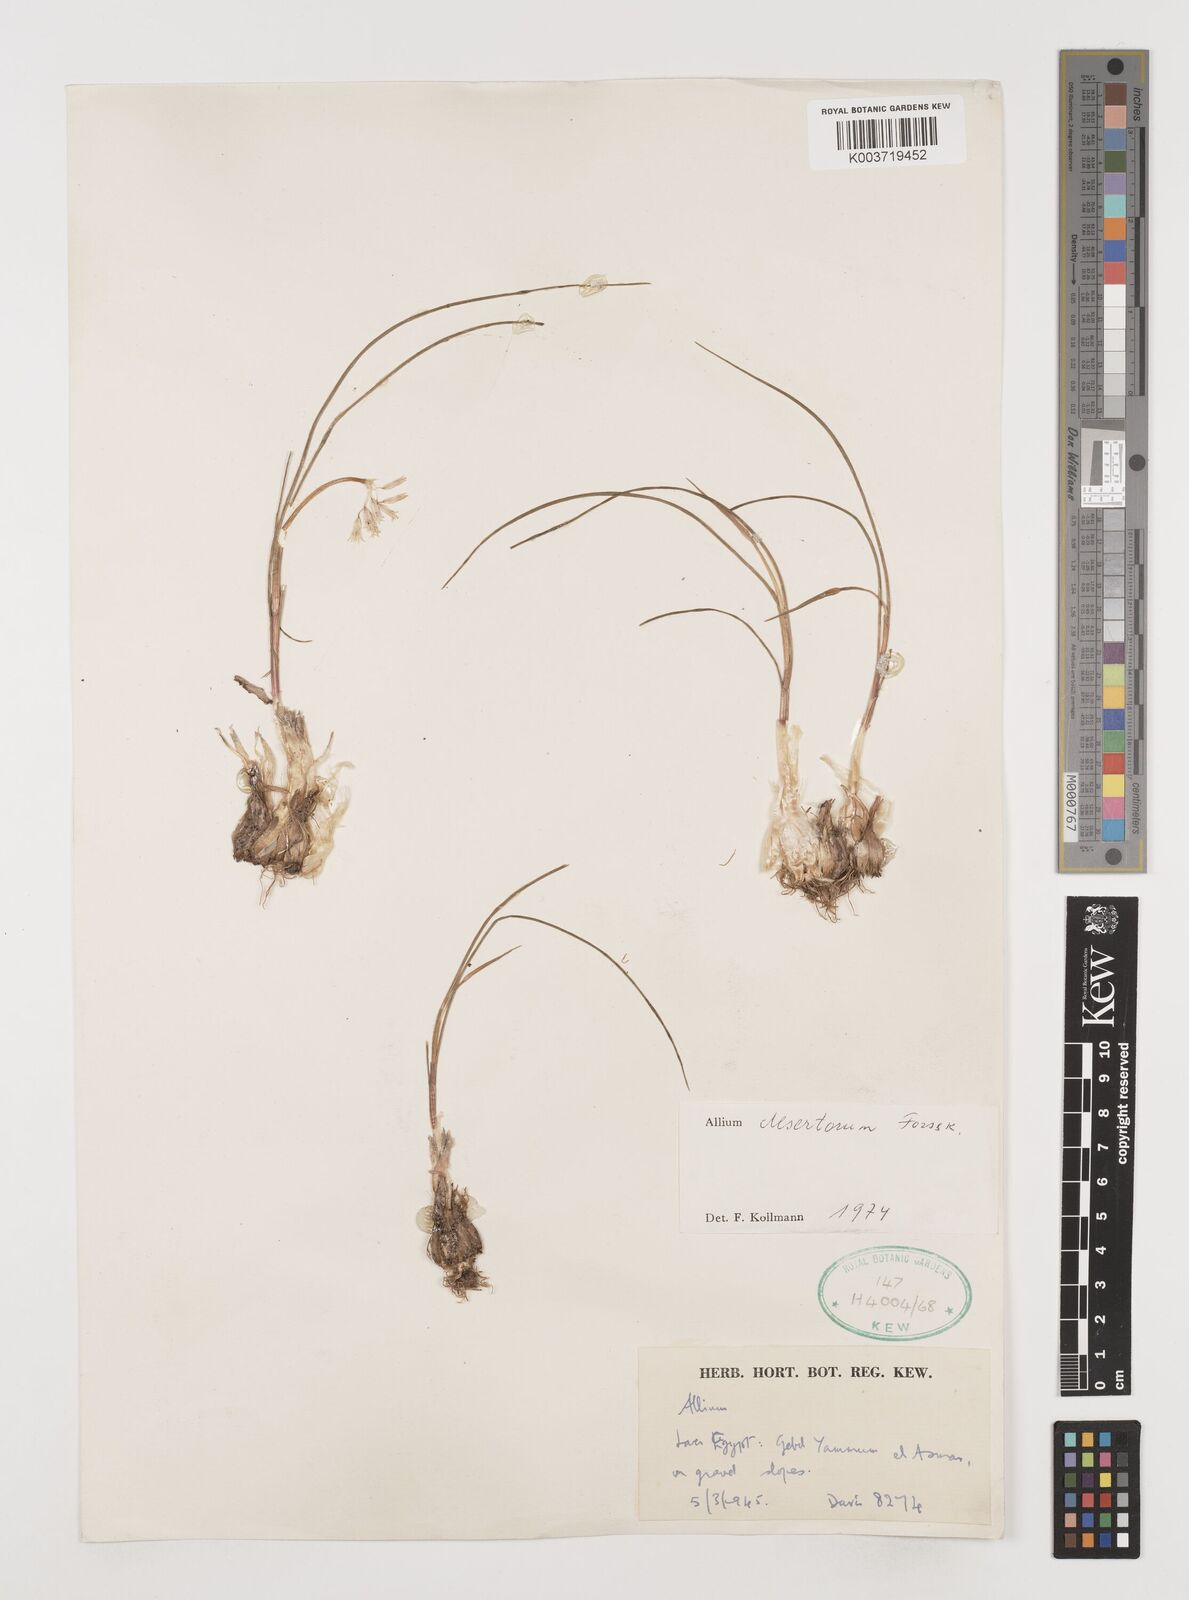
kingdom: Plantae
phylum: Tracheophyta
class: Liliopsida
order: Asparagales
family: Amaryllidaceae
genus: Allium
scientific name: Allium desertorum
